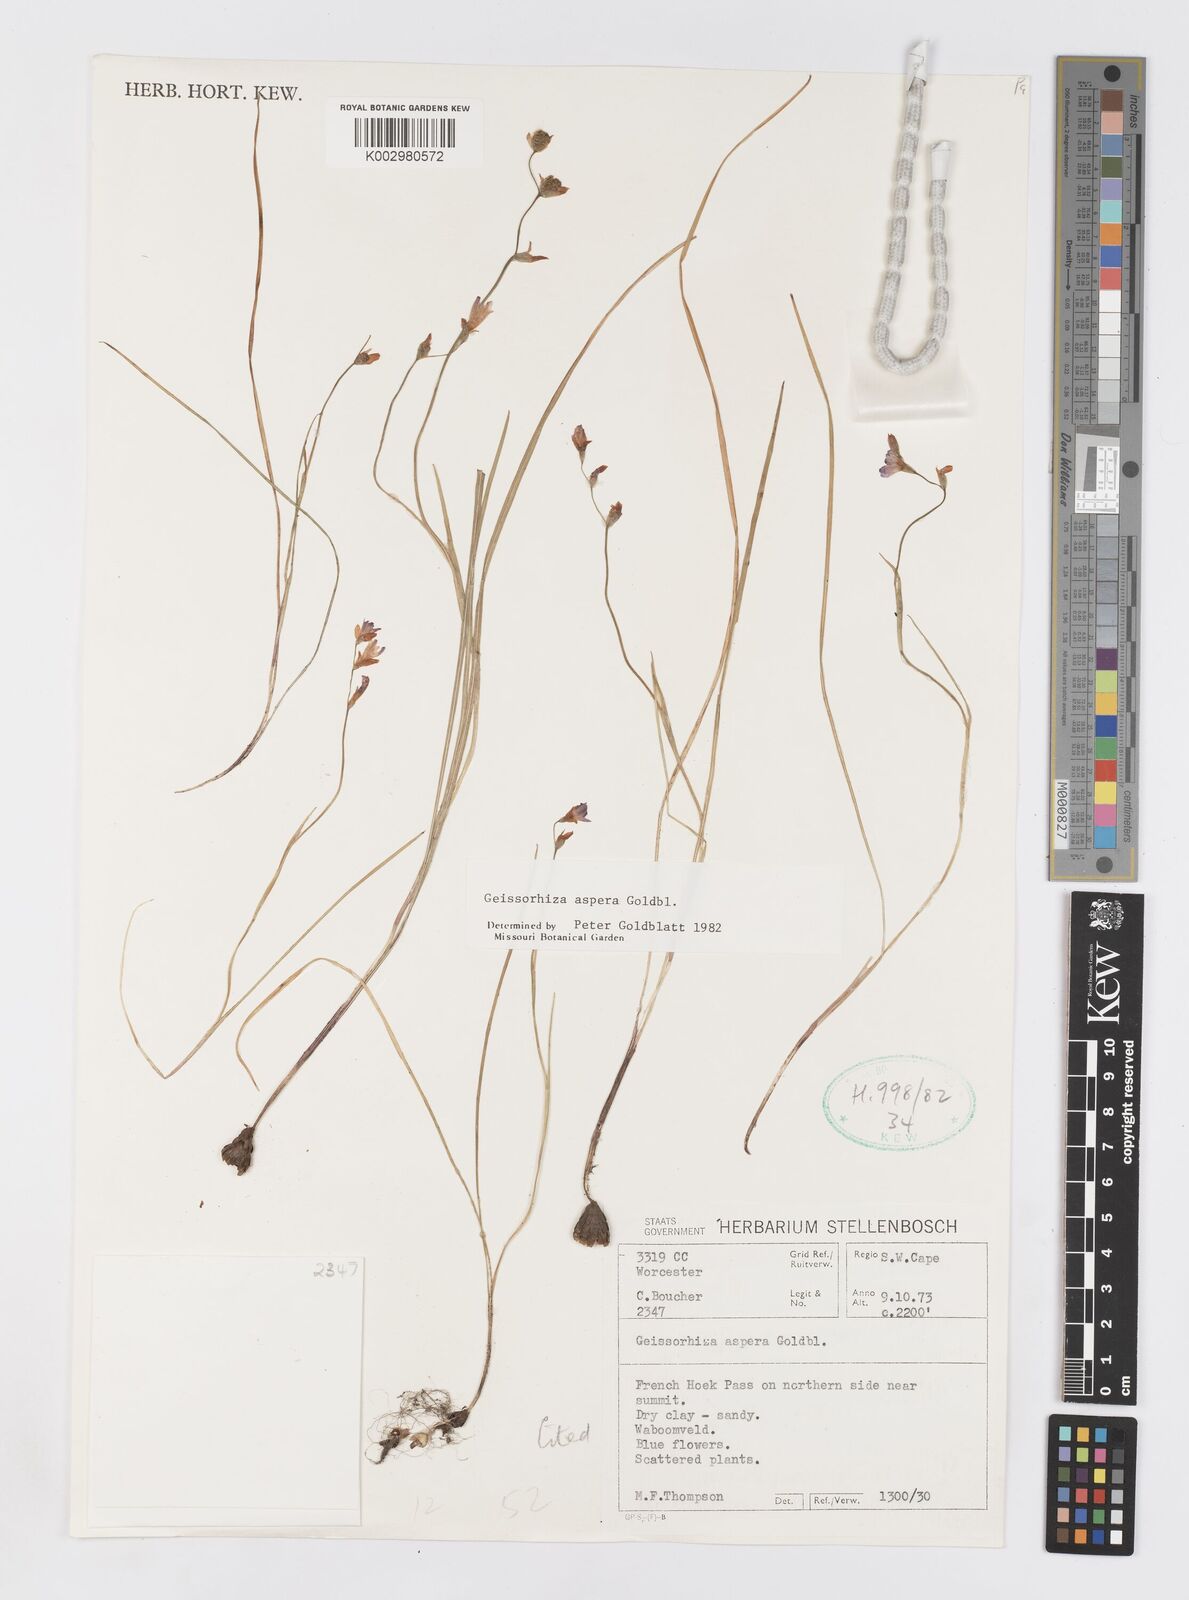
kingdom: Plantae
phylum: Tracheophyta
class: Liliopsida
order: Asparagales
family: Iridaceae
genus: Geissorhiza
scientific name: Geissorhiza aspera
